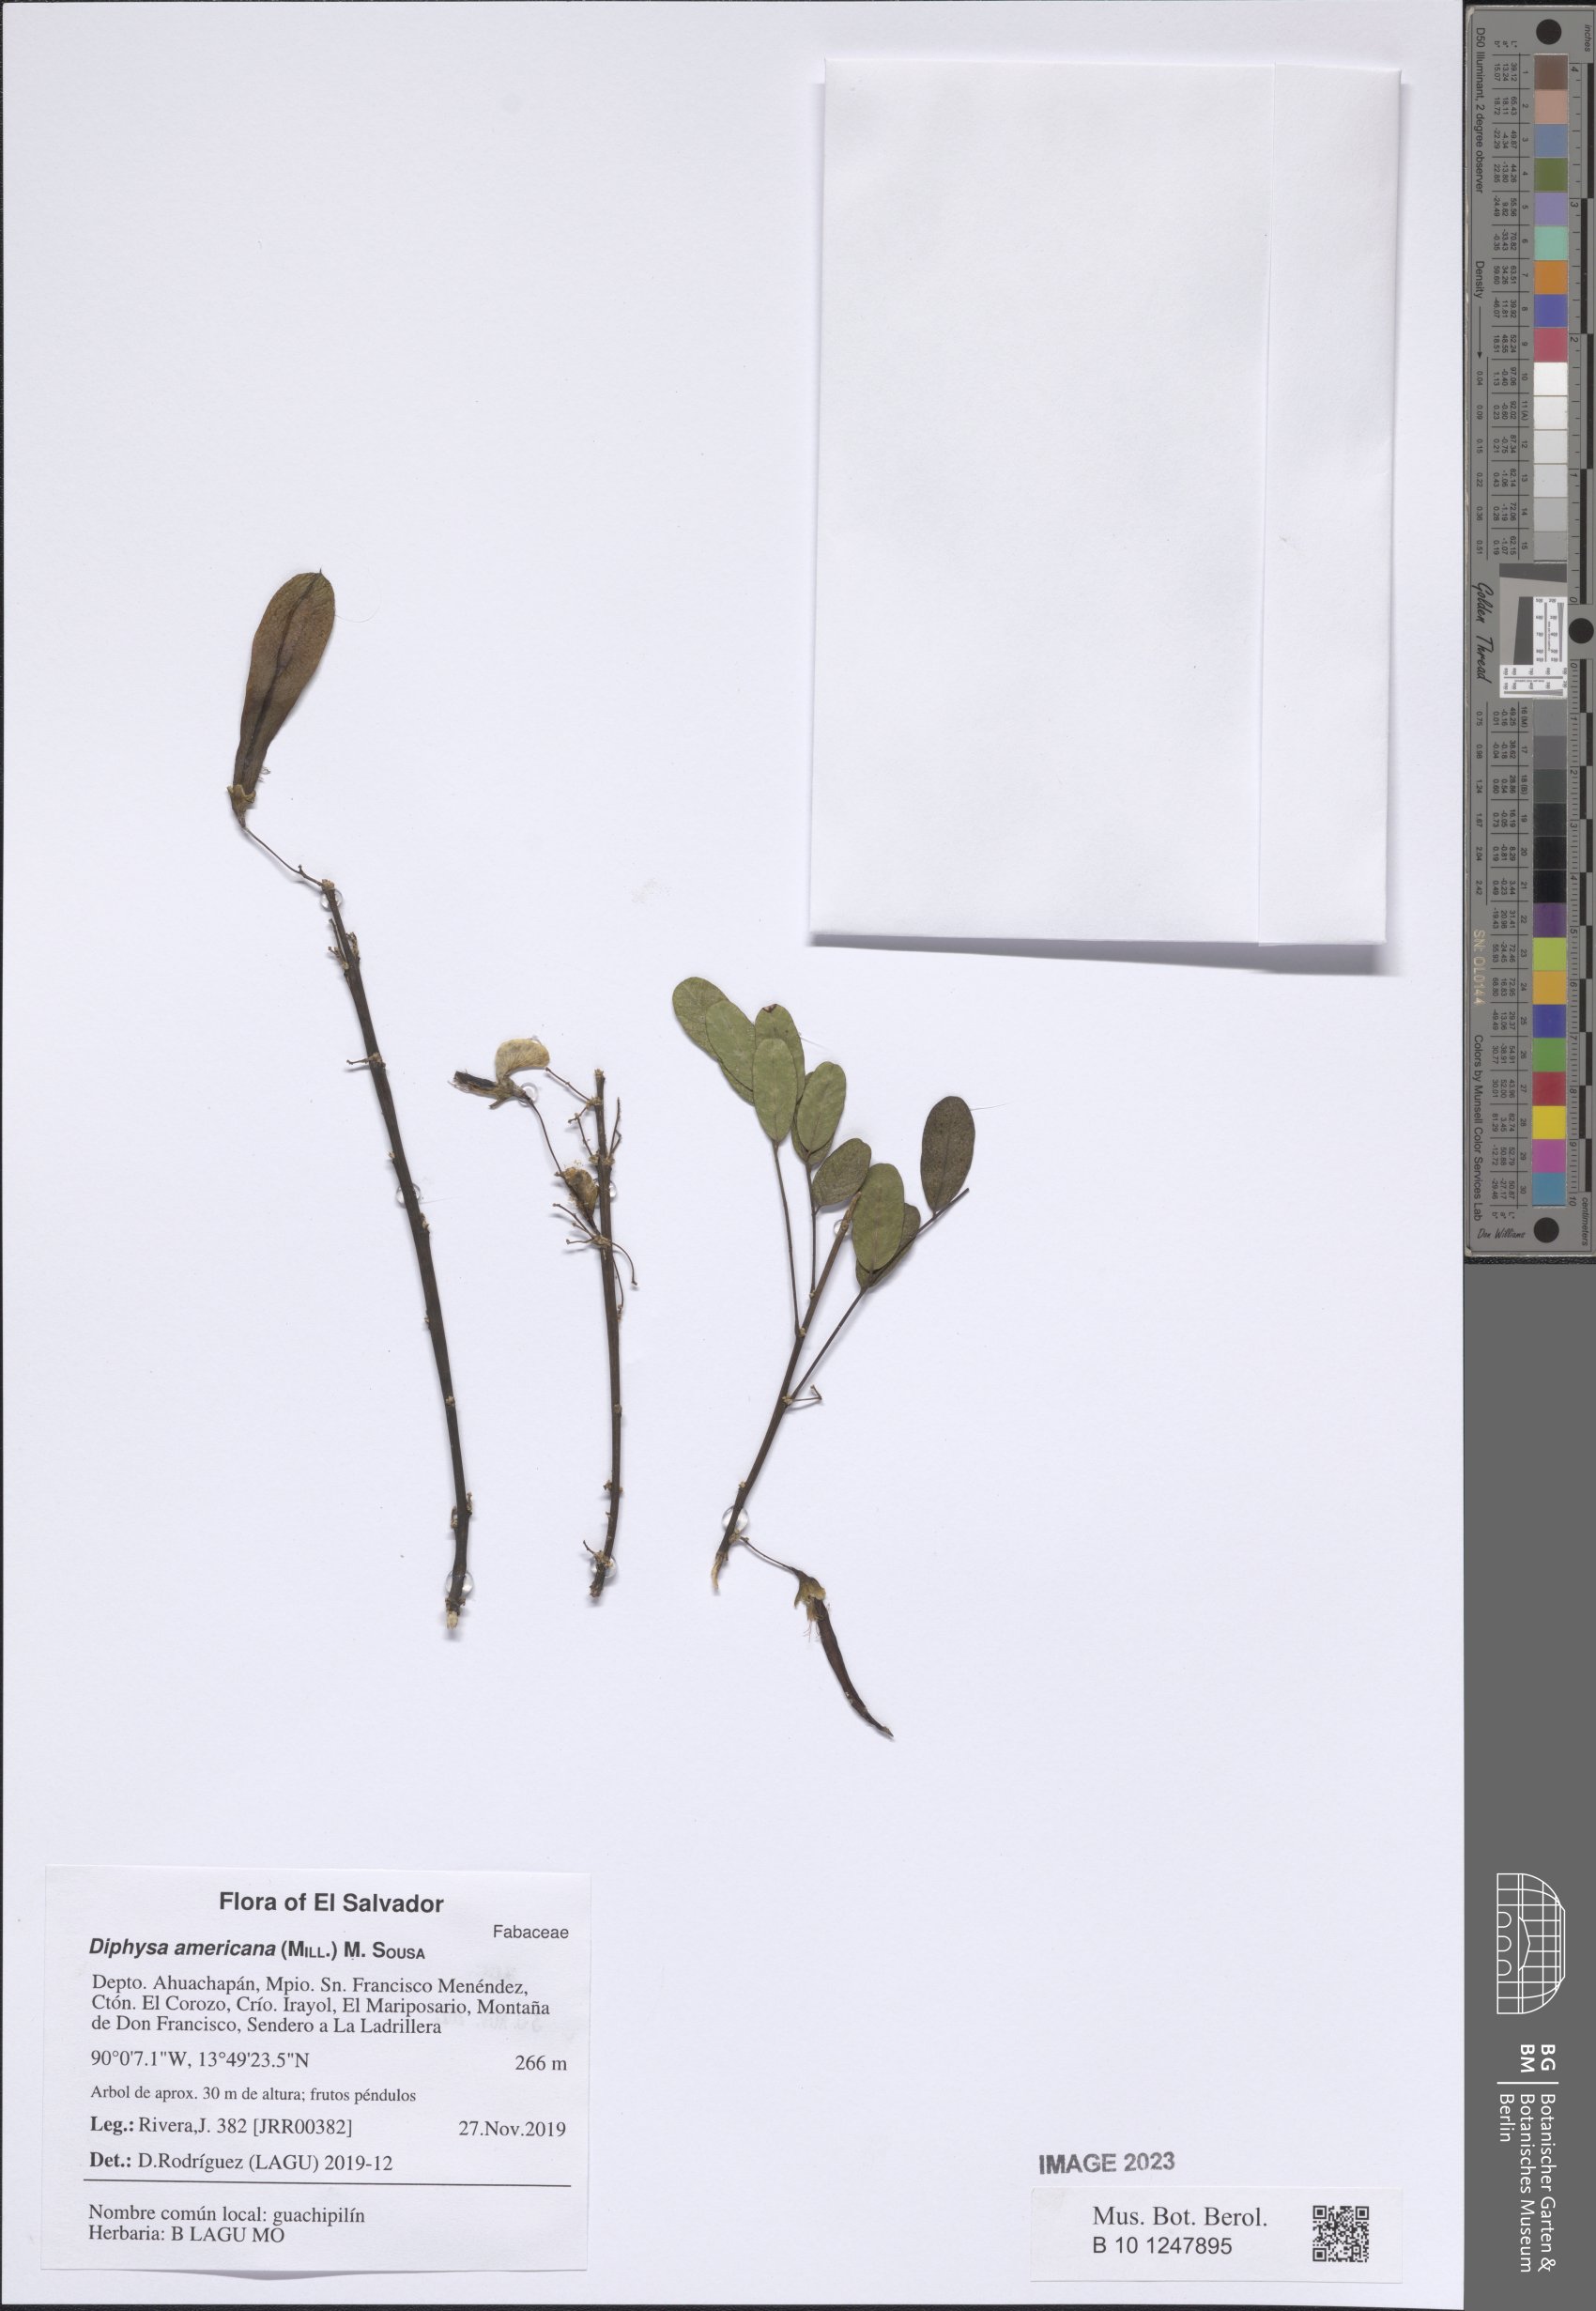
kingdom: Plantae
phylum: Tracheophyta
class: Magnoliopsida
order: Fabales
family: Fabaceae
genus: Diphysa
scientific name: Diphysa americana
